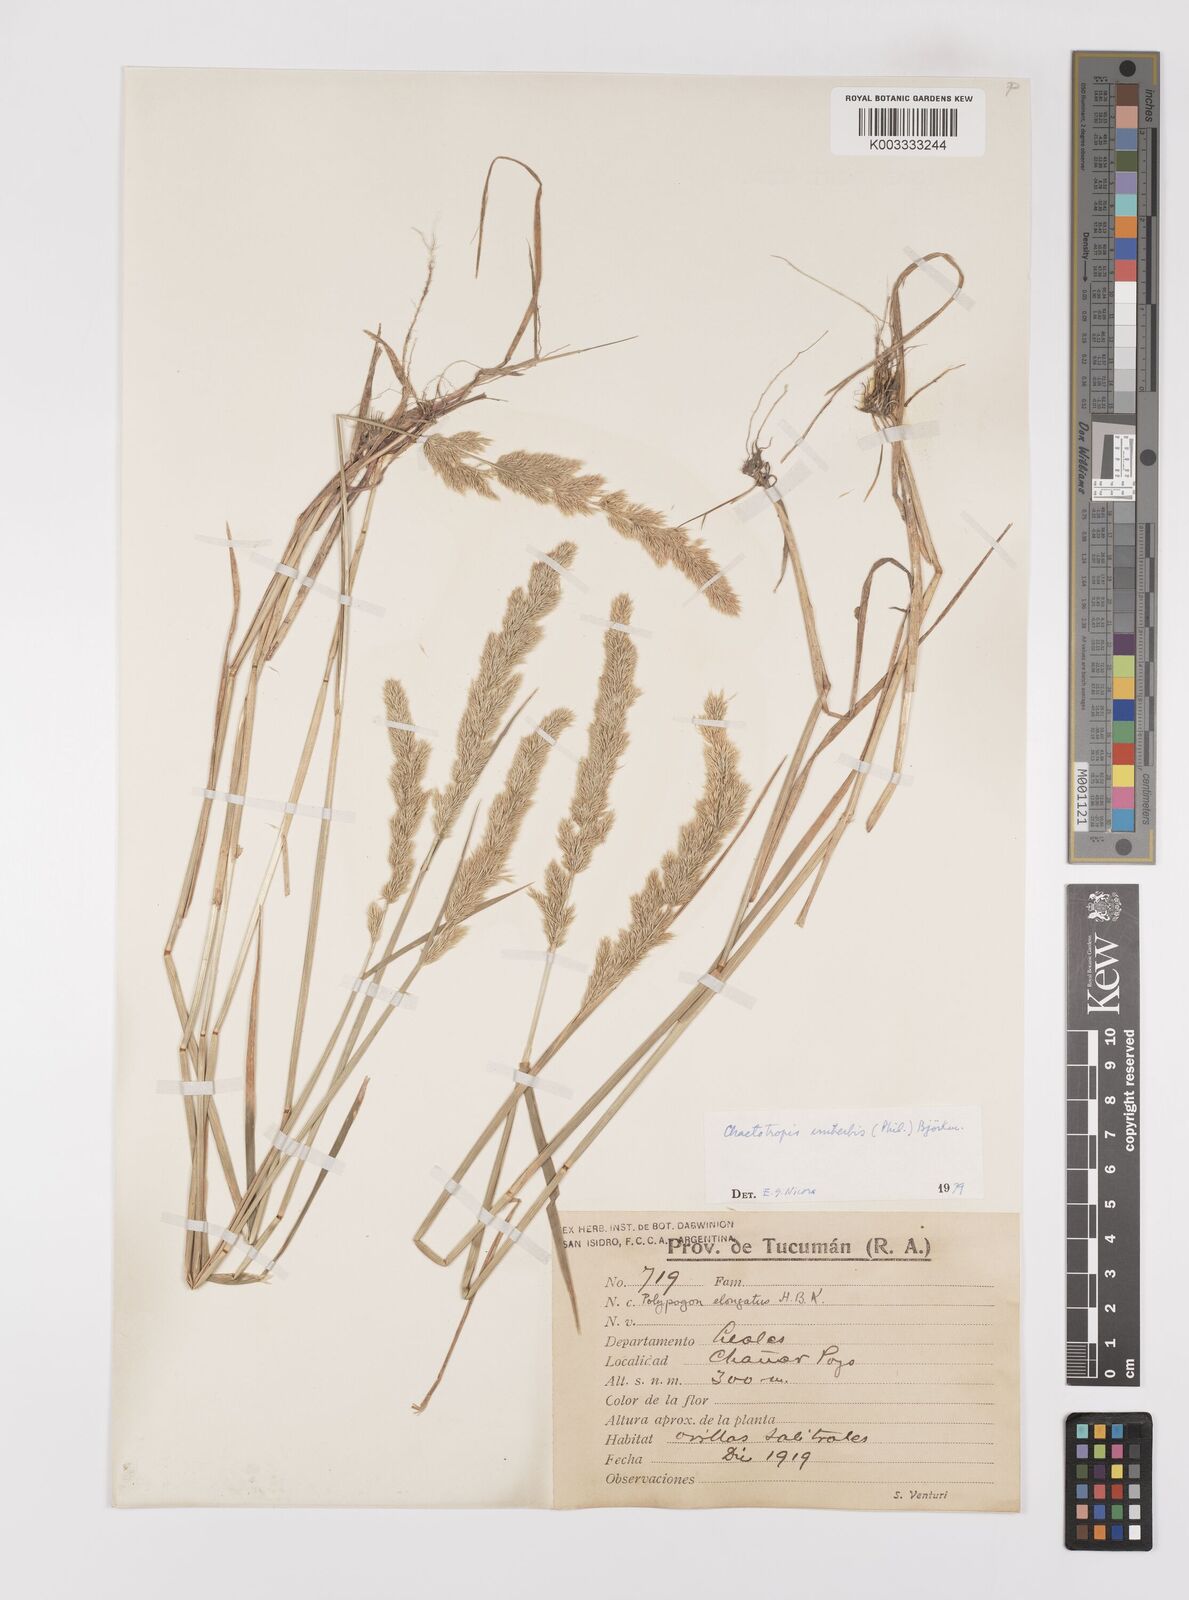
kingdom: Plantae
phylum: Tracheophyta
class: Liliopsida
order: Poales
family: Poaceae
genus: Polypogon
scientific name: Polypogon imberbis
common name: Beardless rabbitsfoot grass
